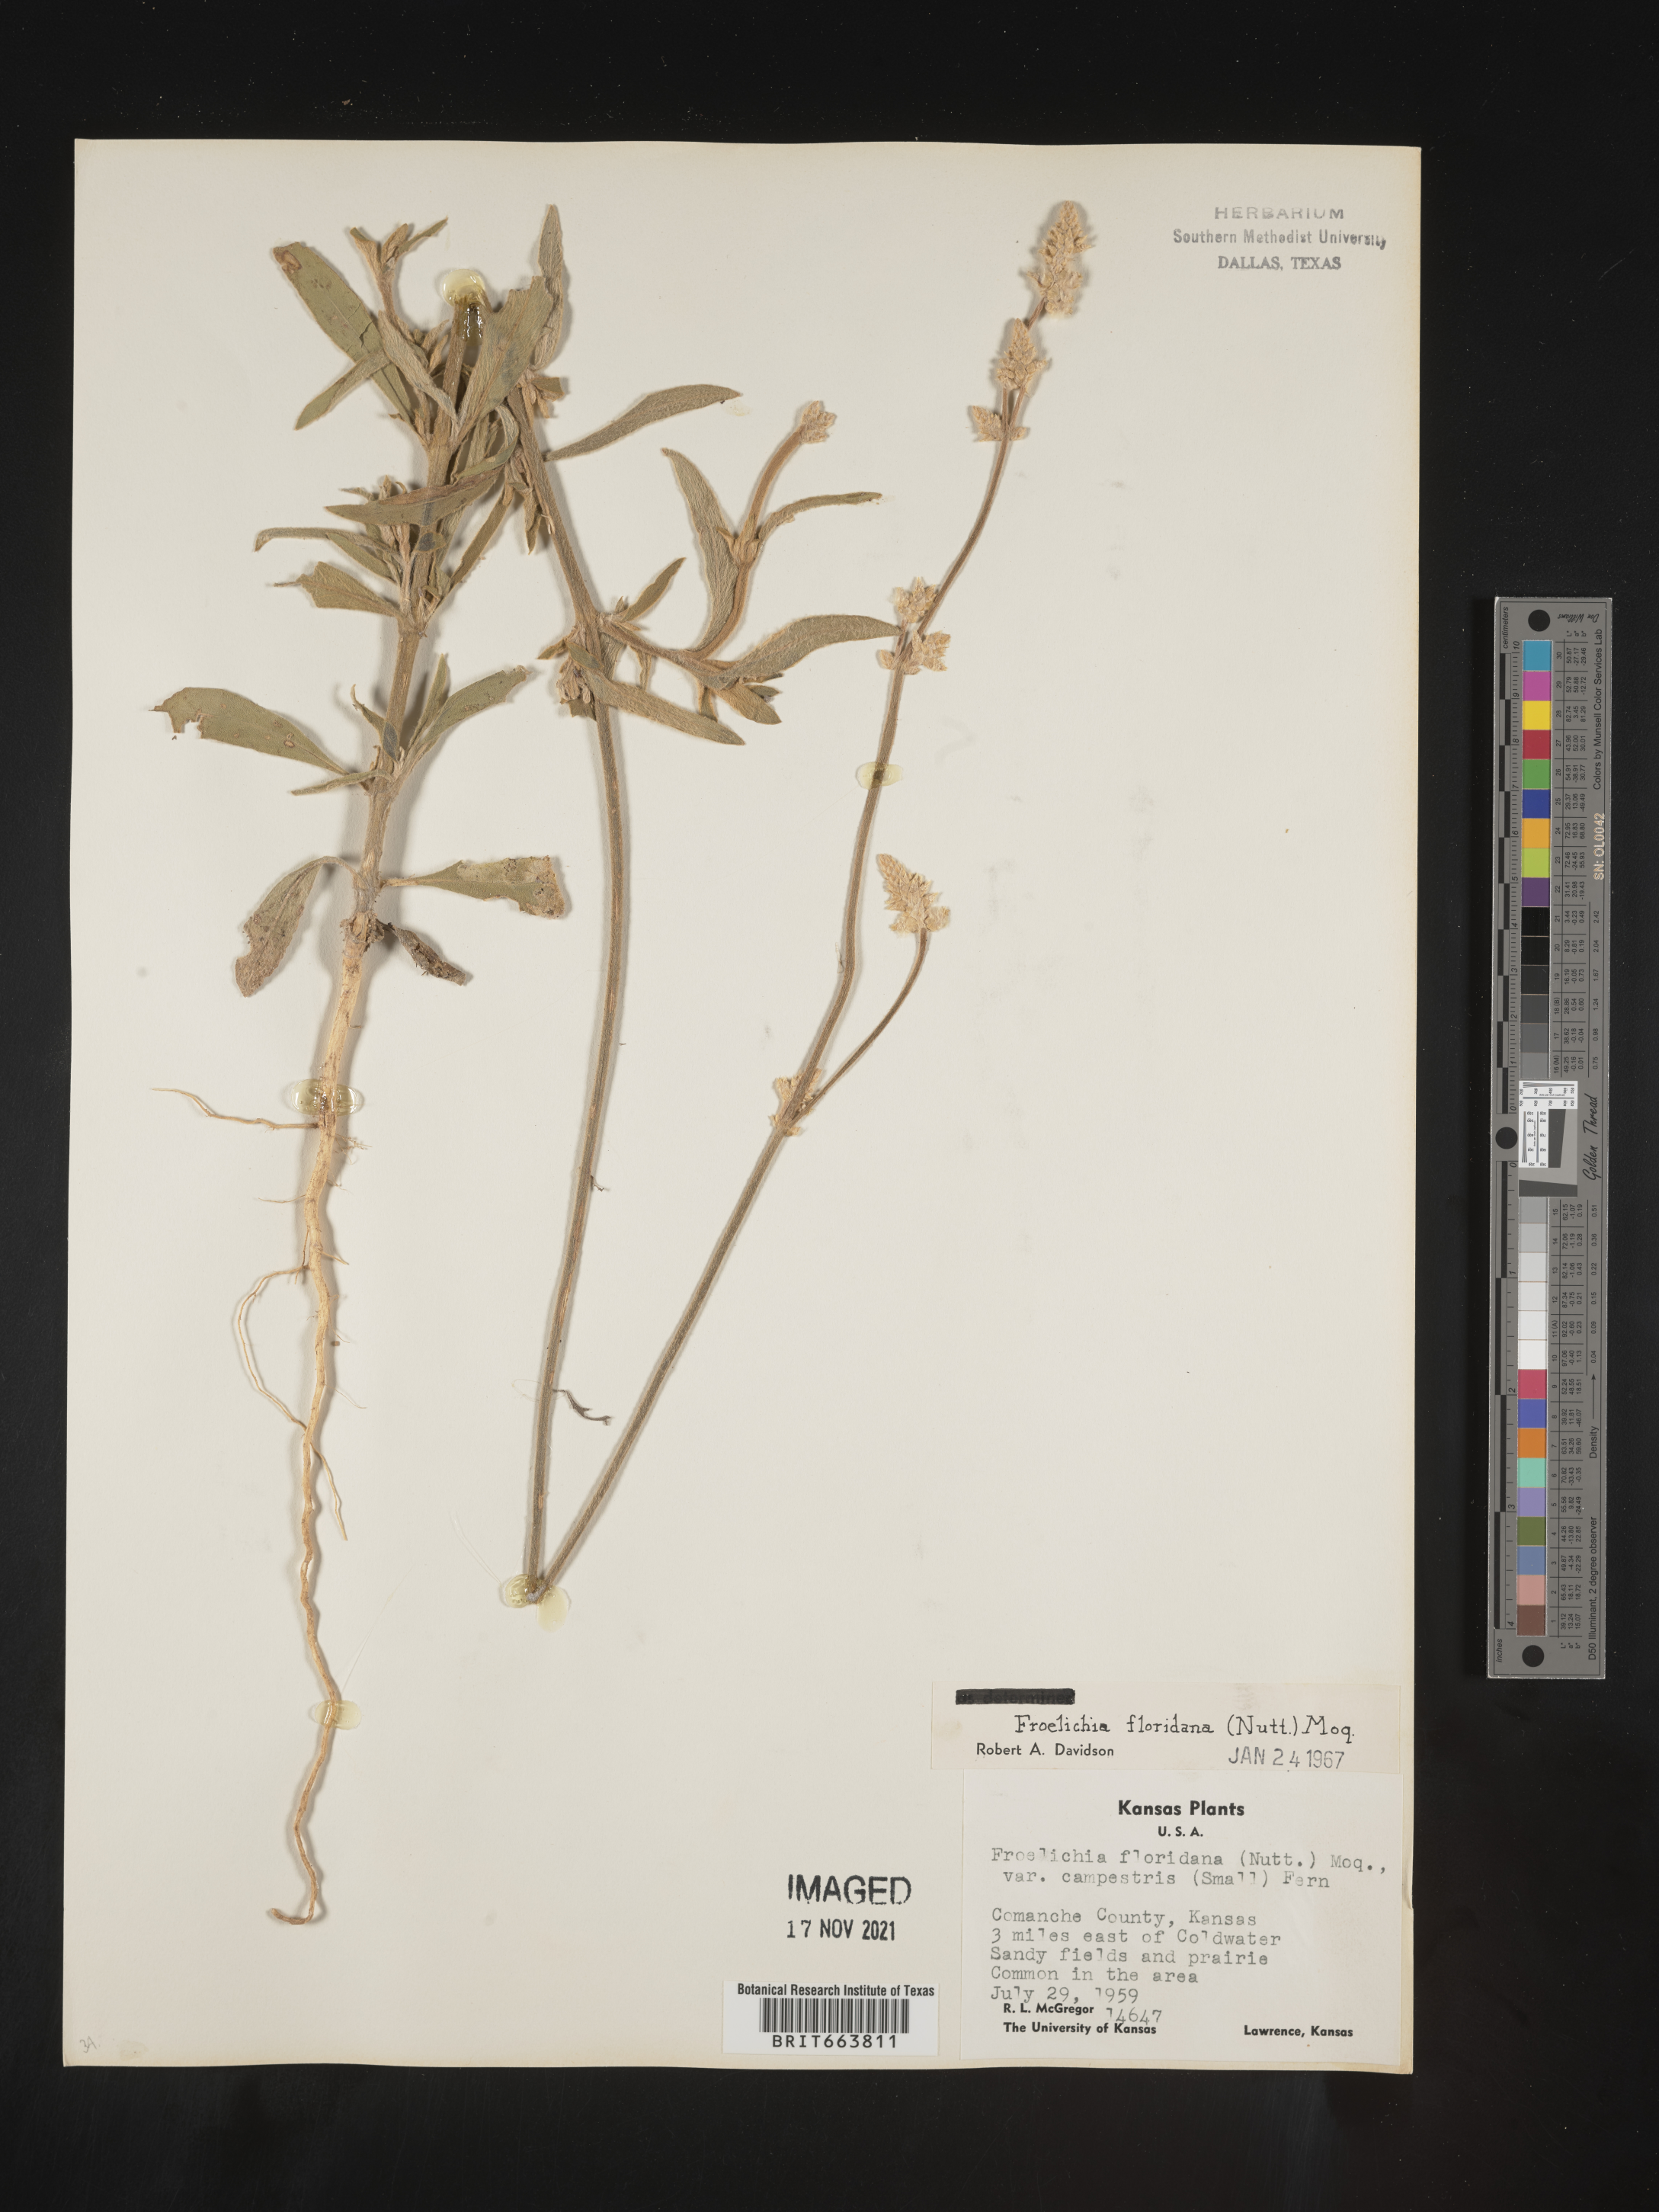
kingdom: Plantae
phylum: Tracheophyta
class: Magnoliopsida
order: Caryophyllales
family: Amaranthaceae
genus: Froelichia
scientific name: Froelichia floridana
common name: Florida snake-cotton
